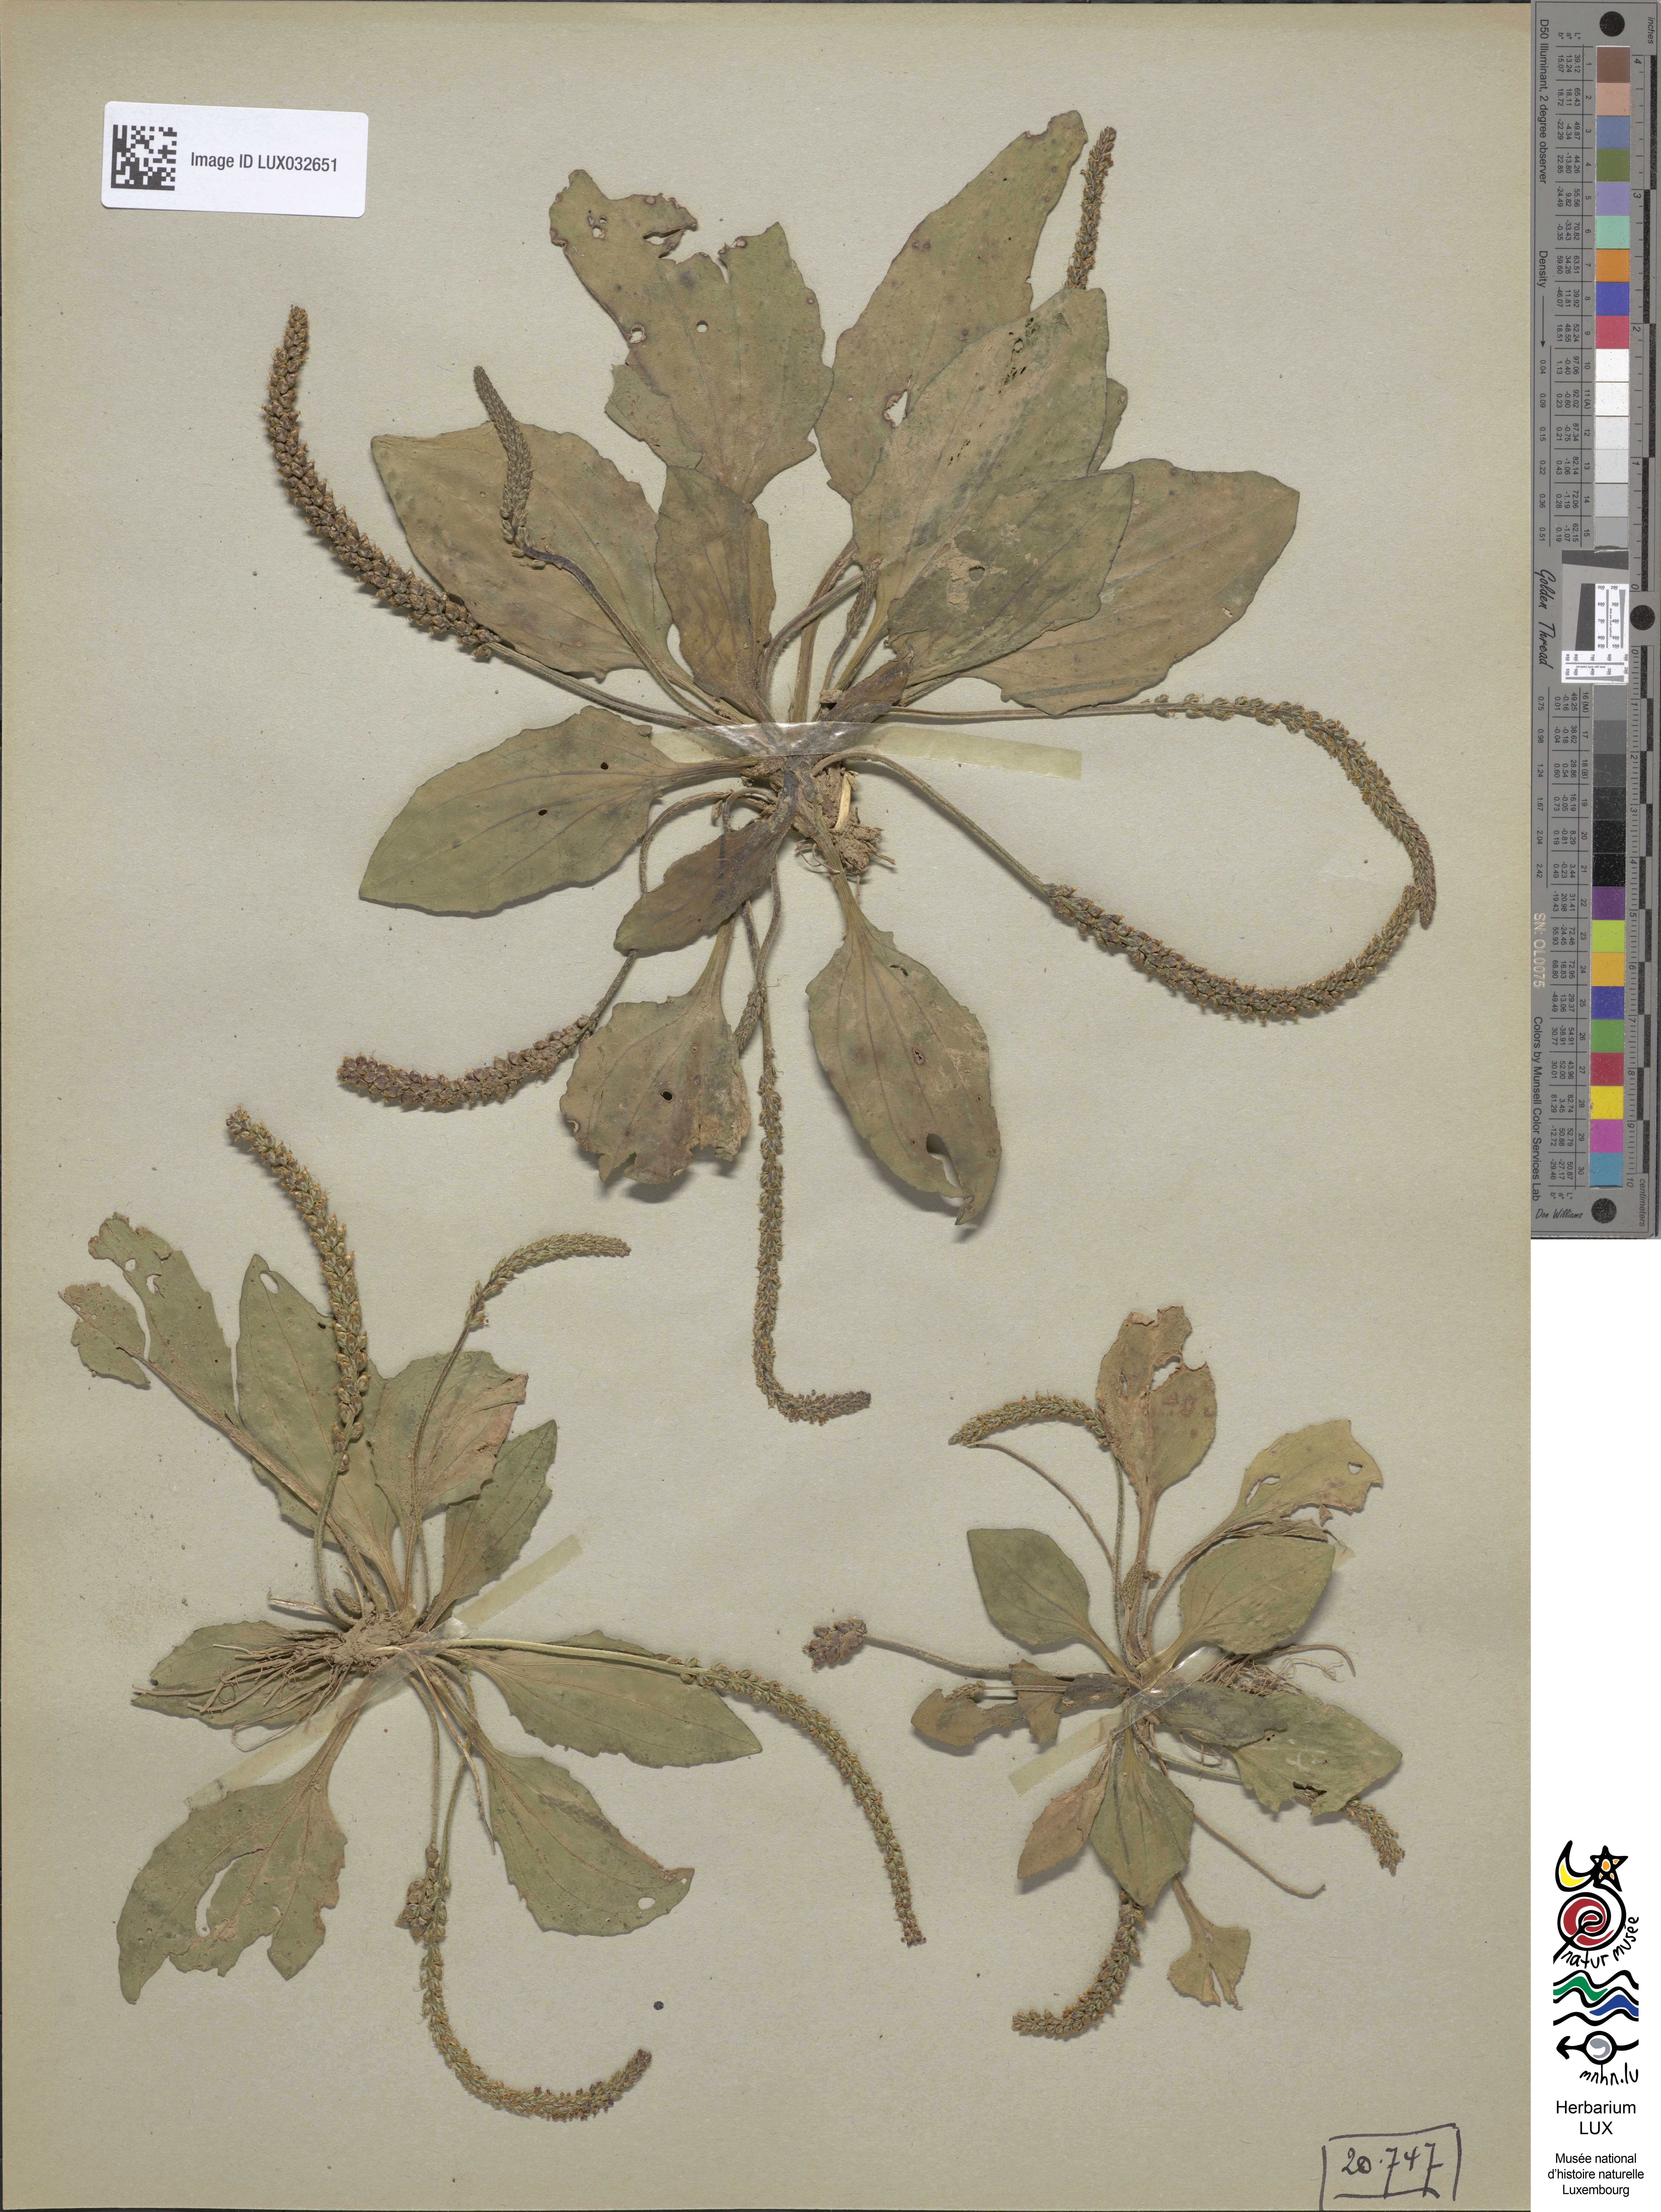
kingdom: Plantae
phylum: Tracheophyta
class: Magnoliopsida
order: Lamiales
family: Plantaginaceae
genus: Plantago
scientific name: Plantago major
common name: Common plantain
